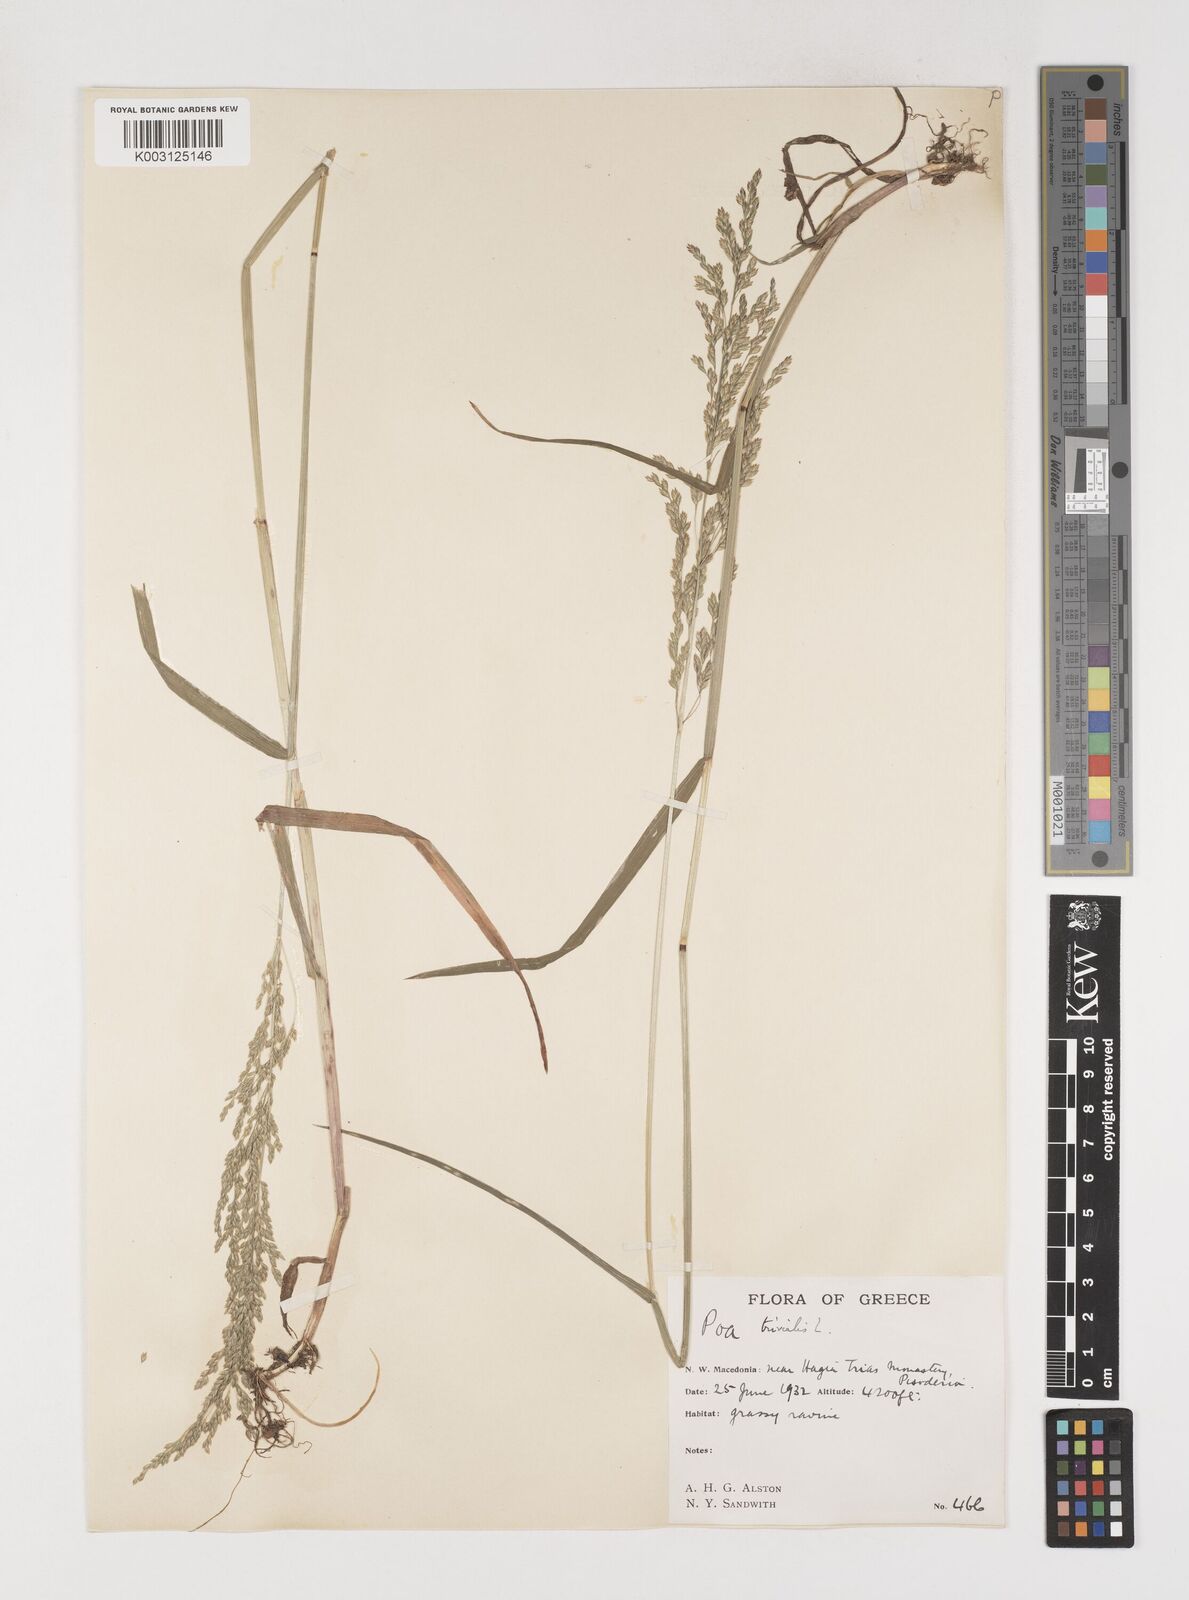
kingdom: Plantae
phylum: Tracheophyta
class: Liliopsida
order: Poales
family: Poaceae
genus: Poa
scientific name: Poa trivialis
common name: Rough bluegrass
